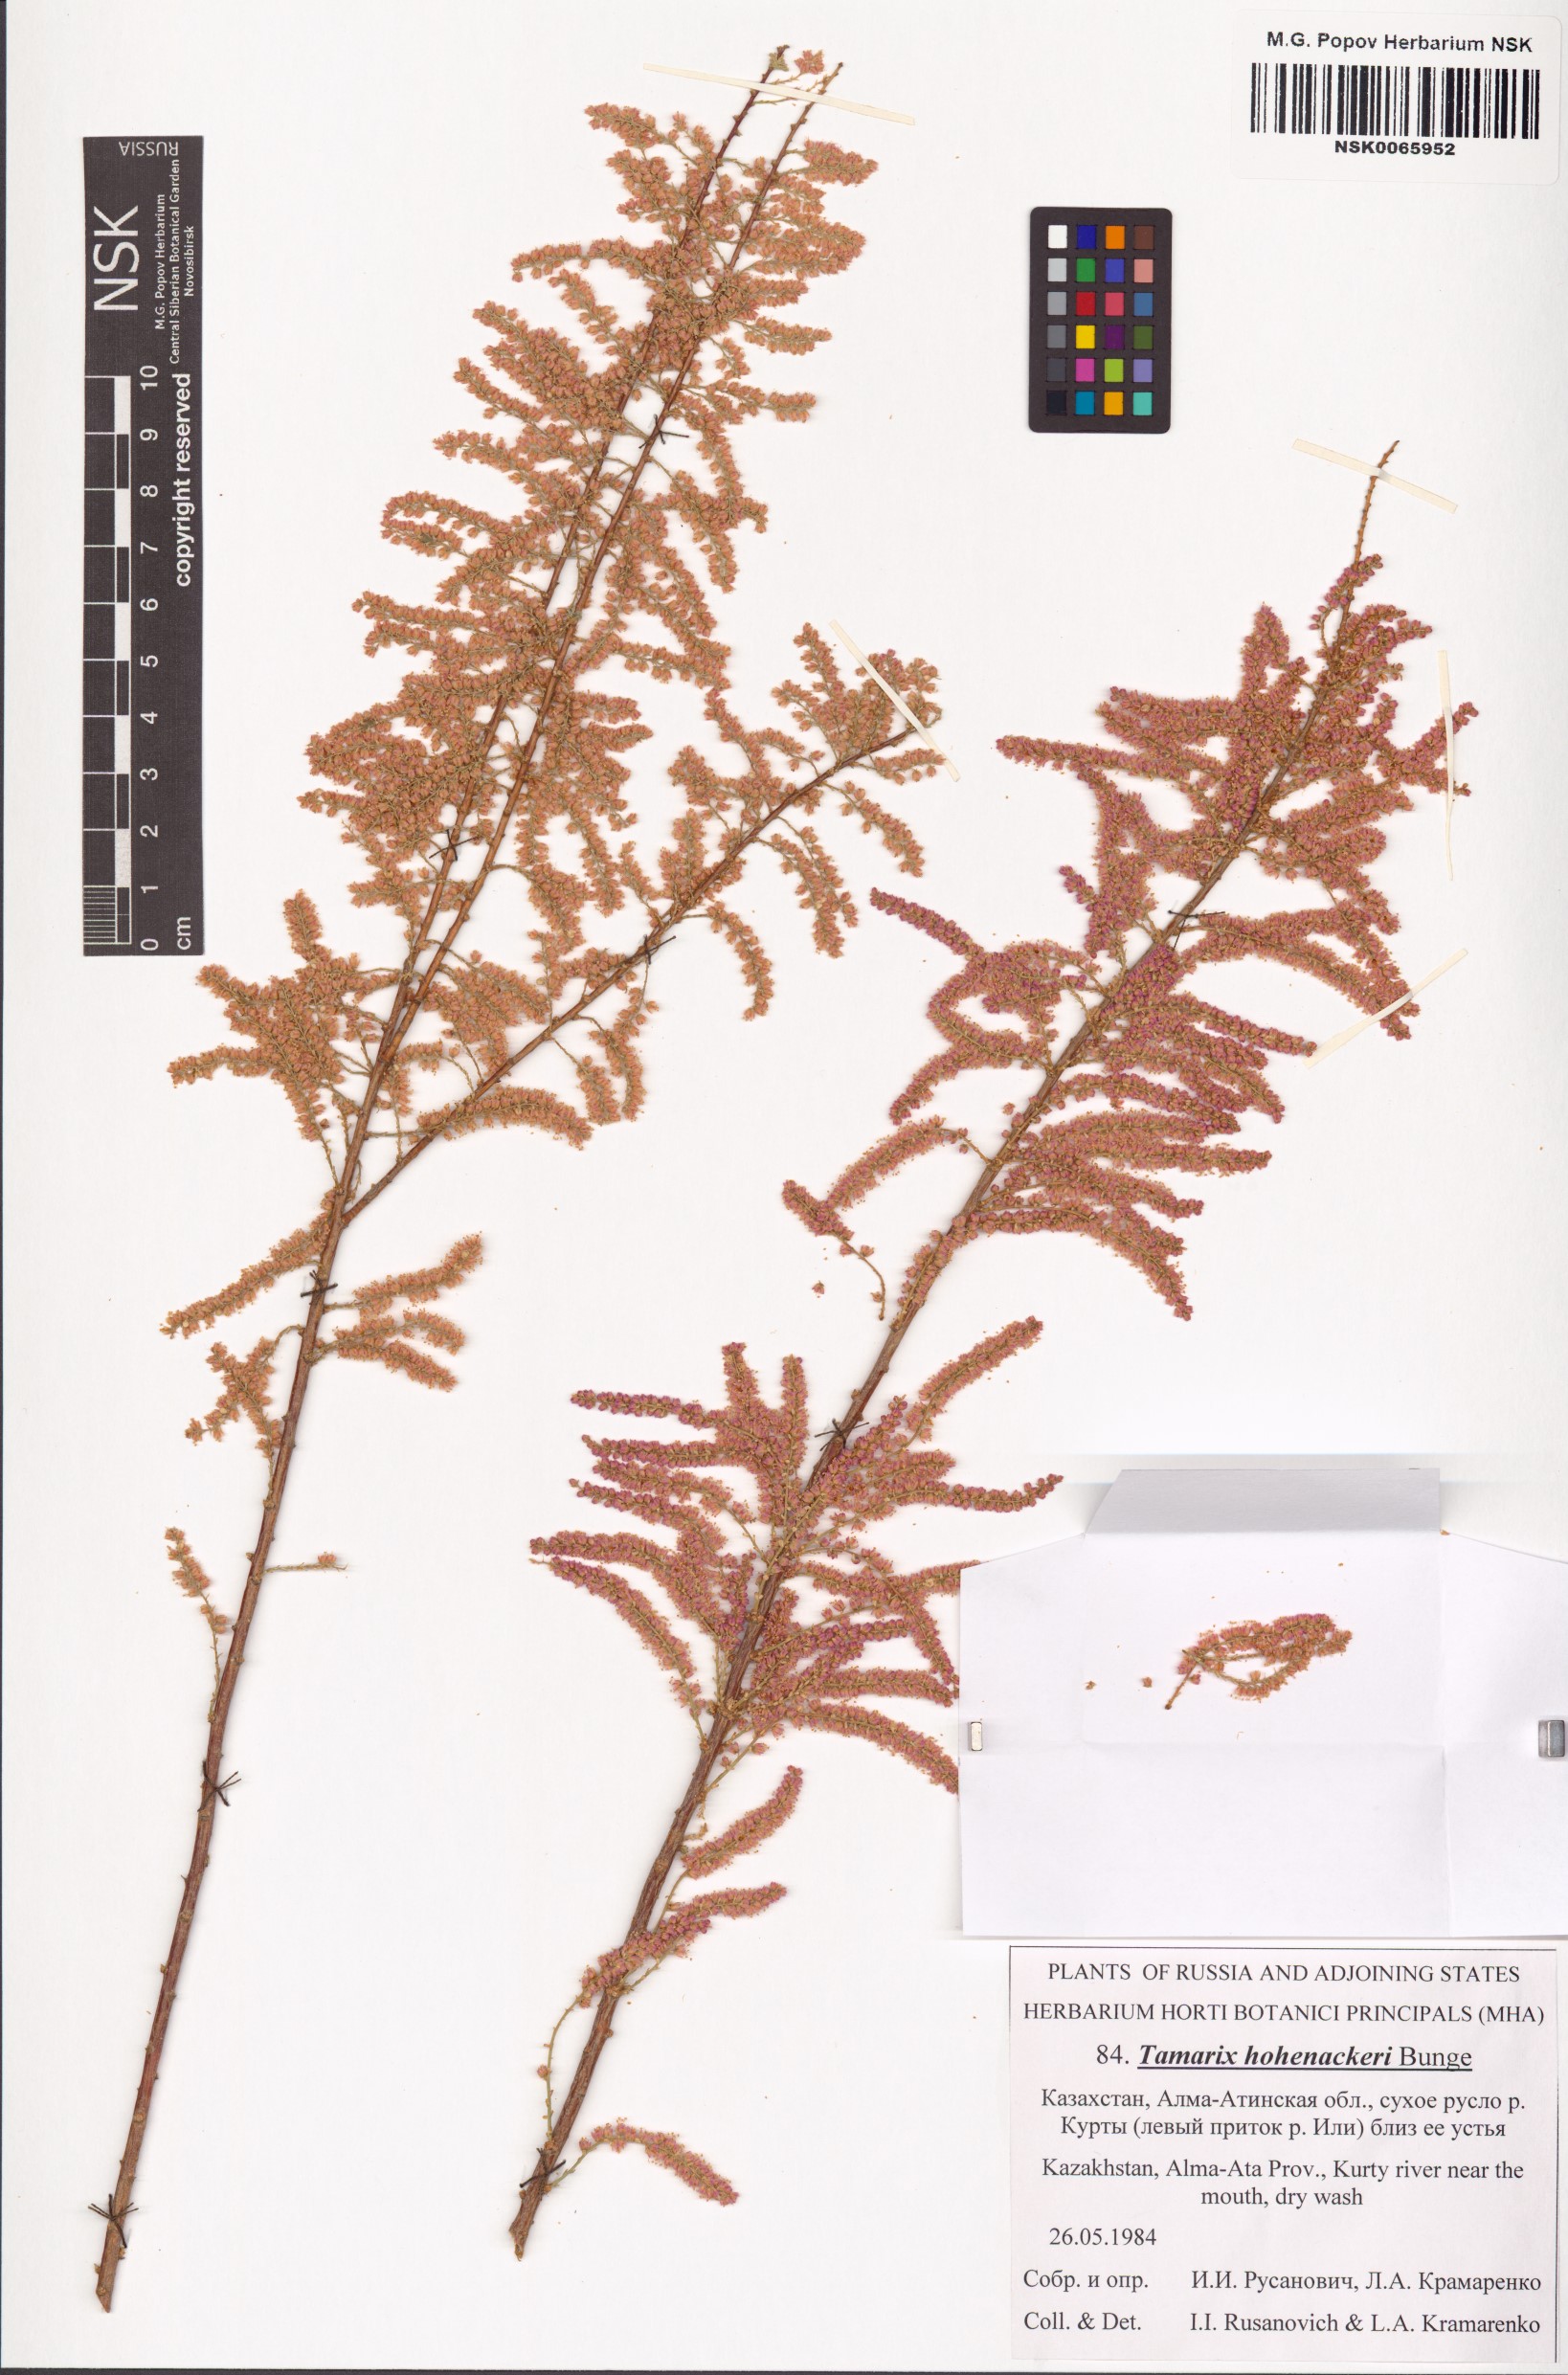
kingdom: Plantae
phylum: Tracheophyta
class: Magnoliopsida
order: Caryophyllales
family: Tamaricaceae
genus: Tamarix
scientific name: Tamarix hohenackeri
